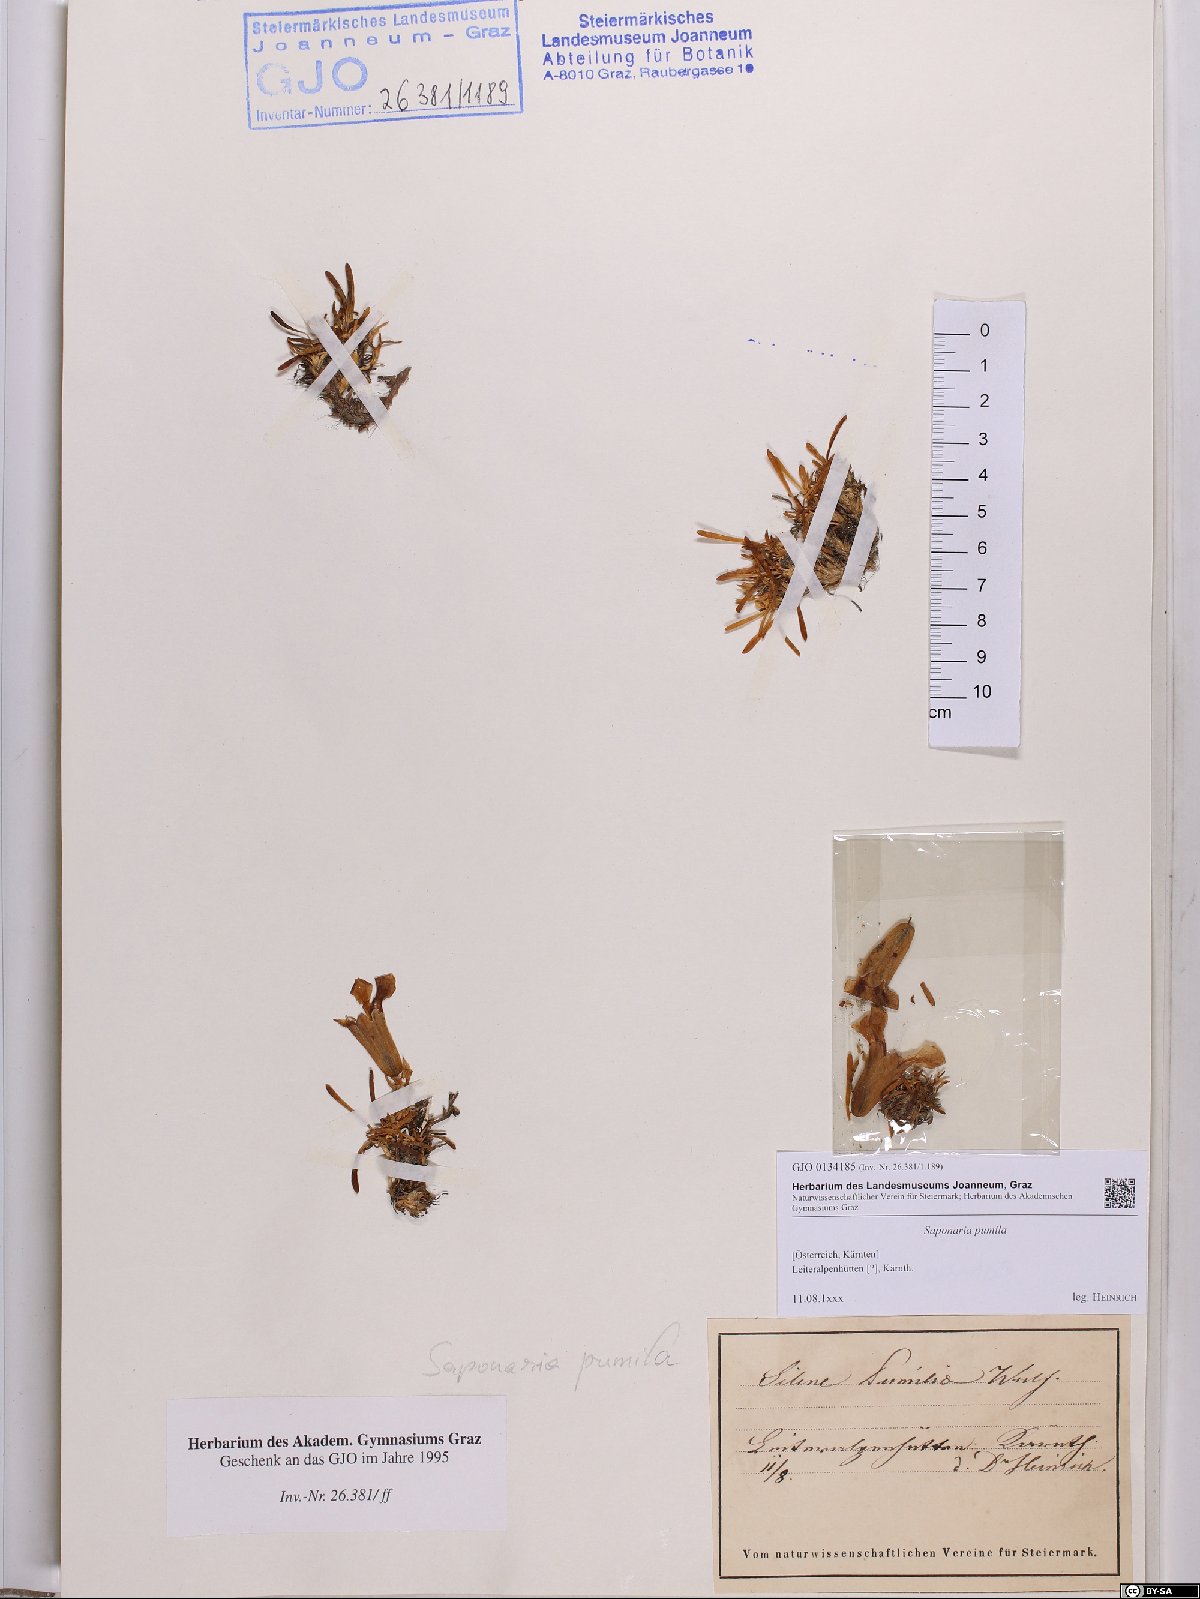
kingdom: Plantae
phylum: Tracheophyta
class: Magnoliopsida
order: Caryophyllales
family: Caryophyllaceae
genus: Saponaria
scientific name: Saponaria pumila
